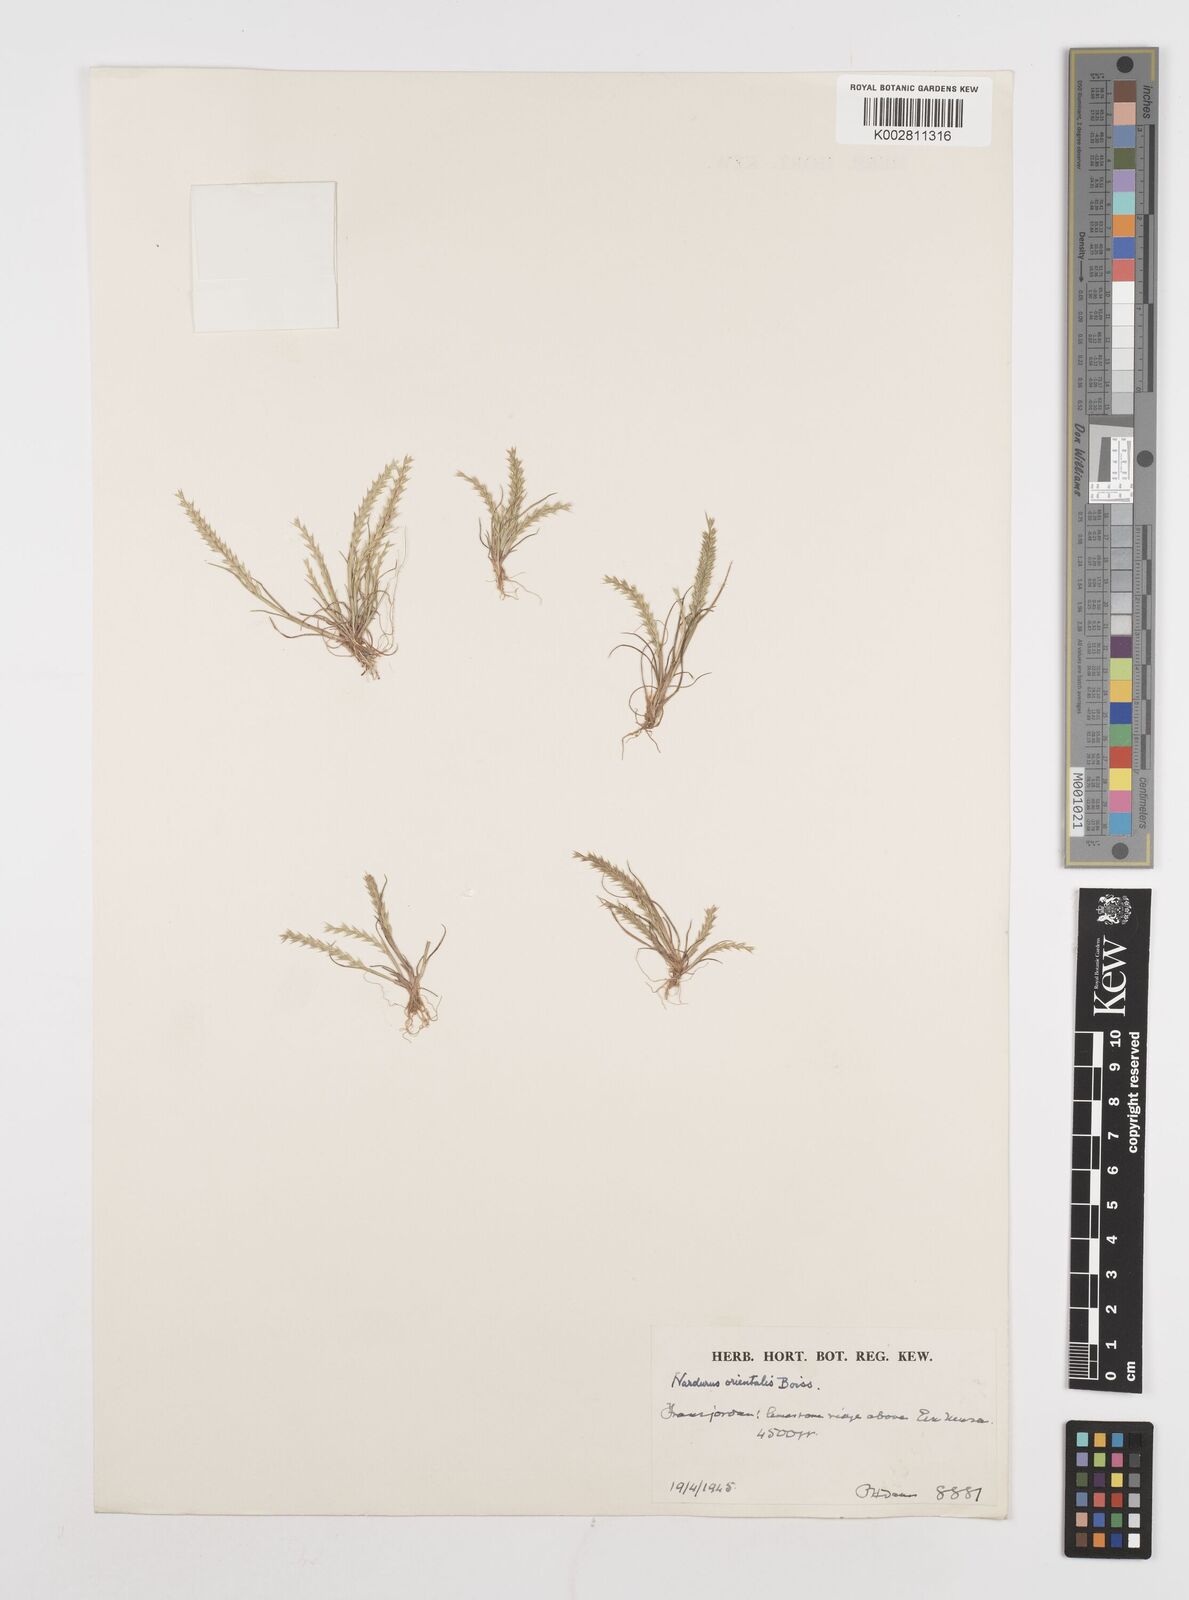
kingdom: Plantae
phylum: Tracheophyta
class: Liliopsida
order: Poales
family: Poaceae
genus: Festuca
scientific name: Festuca orientalis
